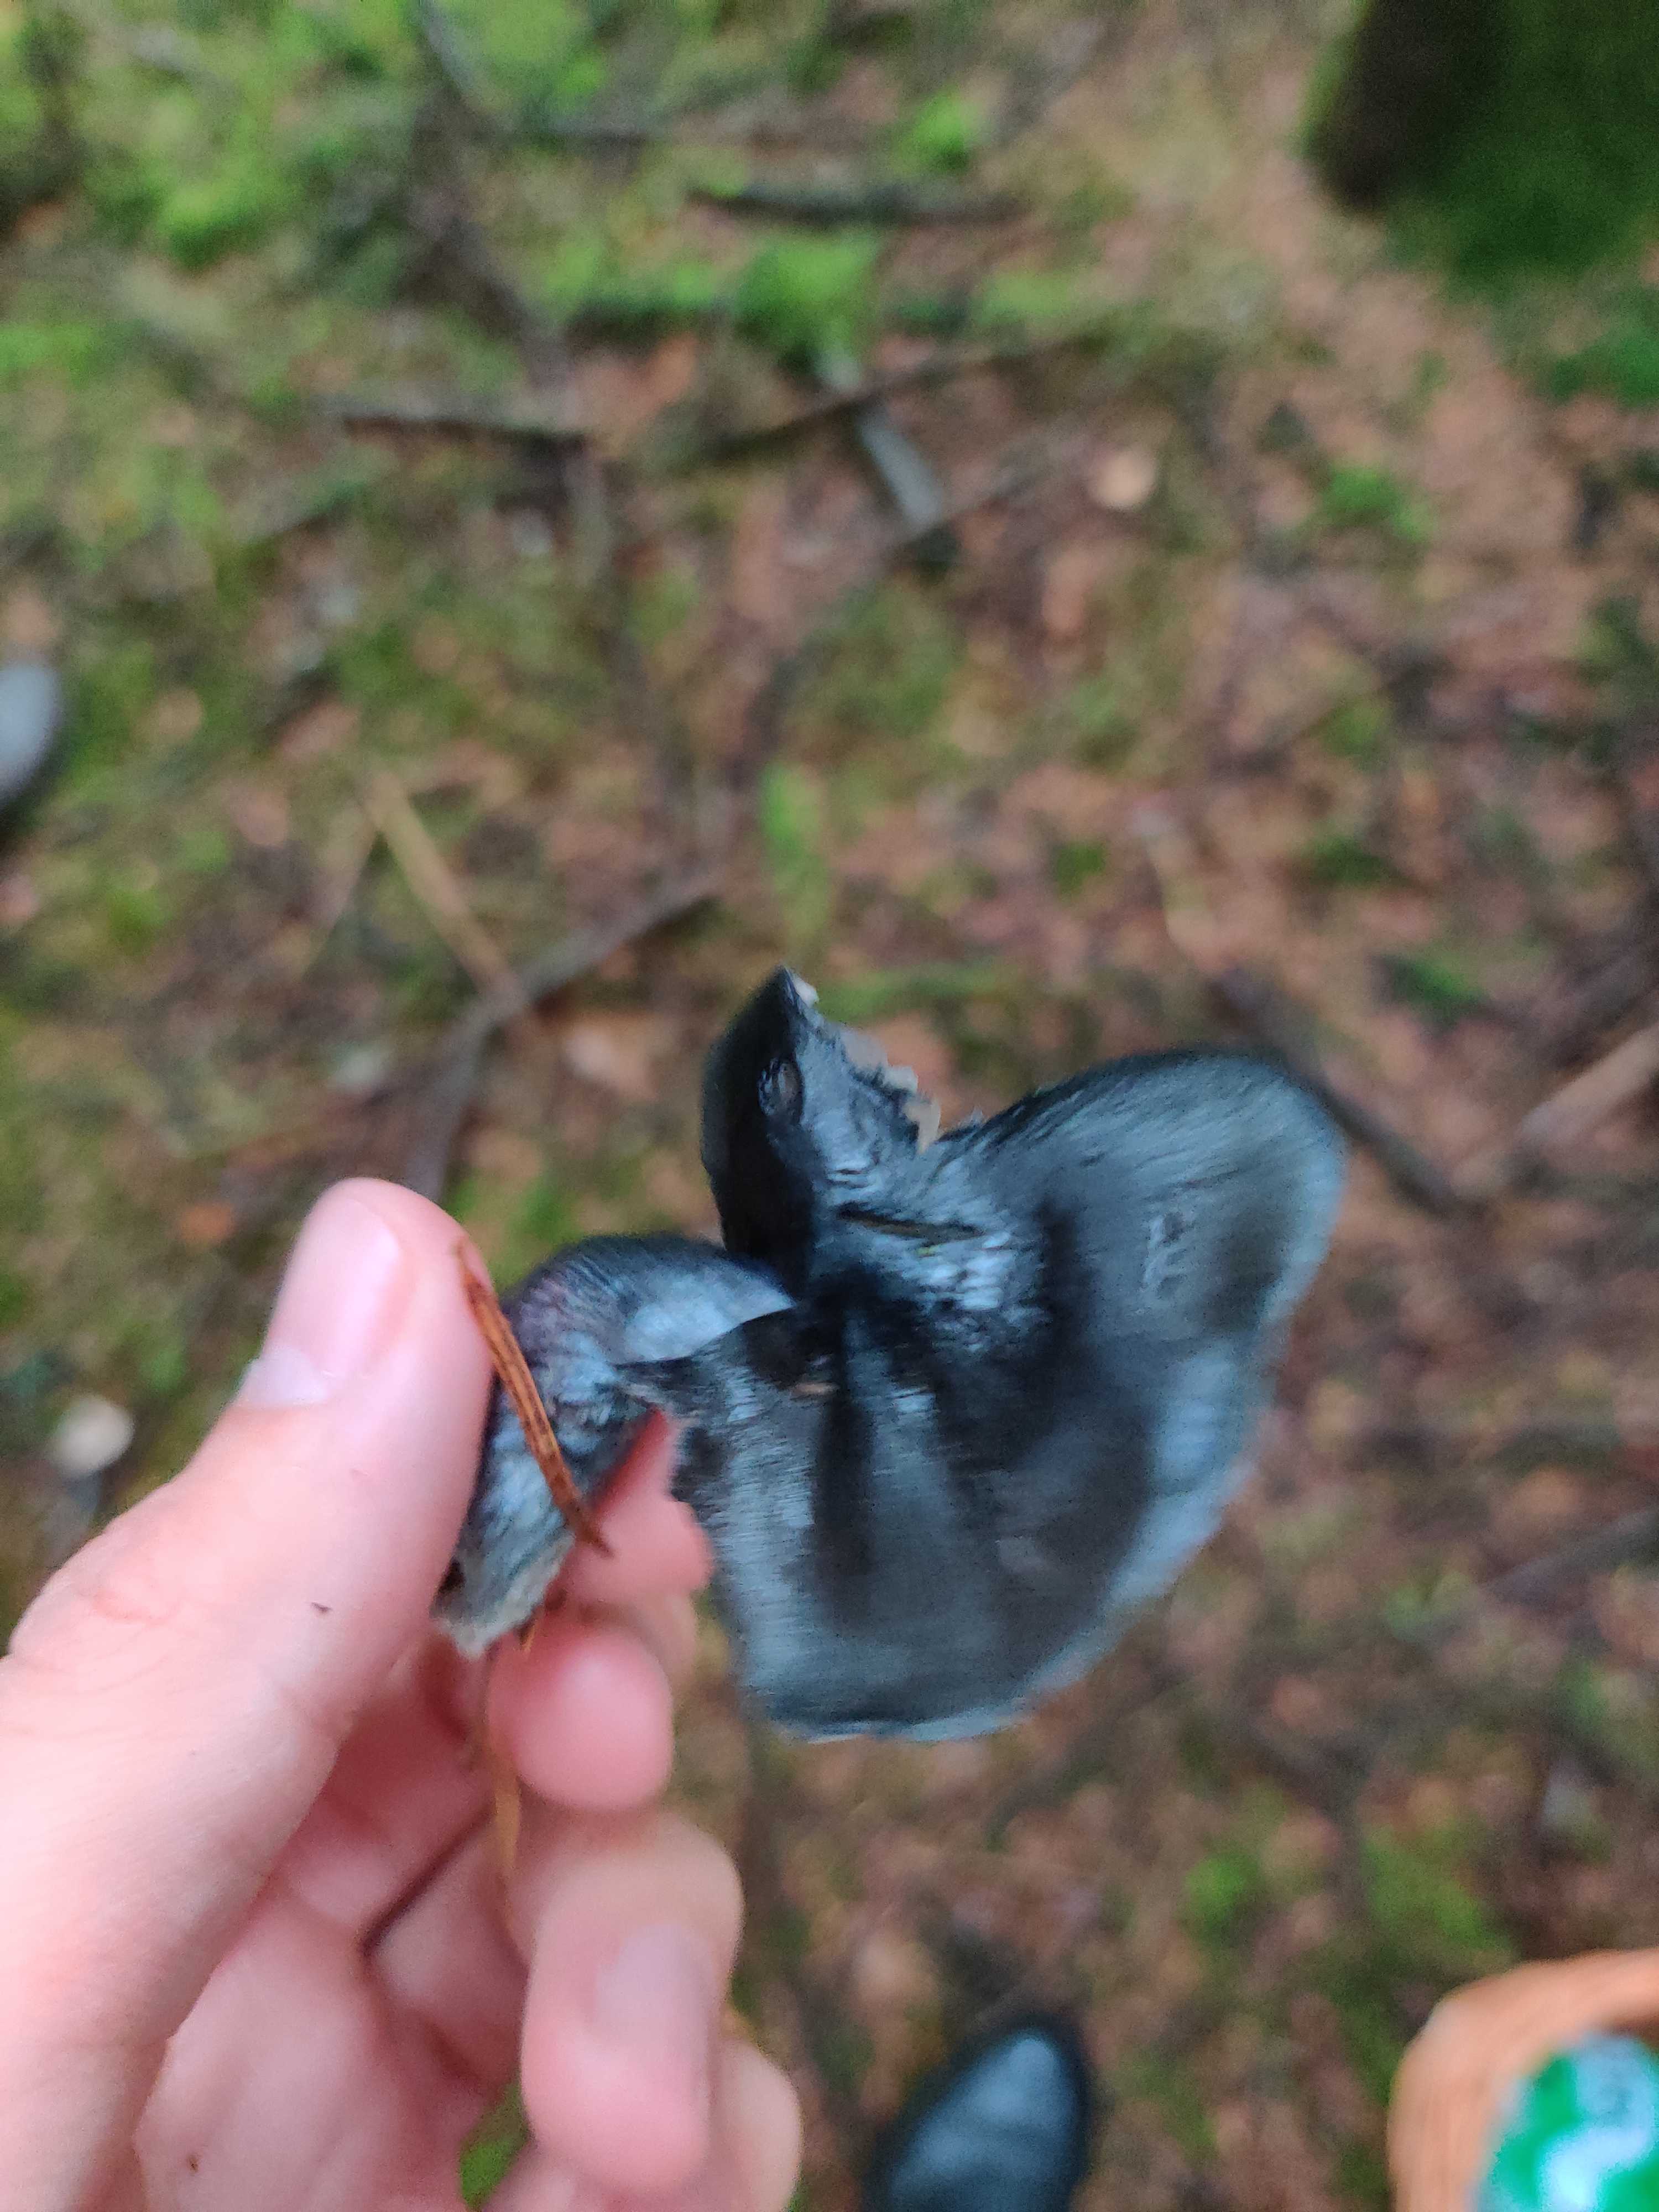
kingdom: Fungi
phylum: Basidiomycota
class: Agaricomycetes
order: Agaricales
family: Entolomataceae
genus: Entocybe
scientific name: Entocybe nitida
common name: stålblå rødblad
